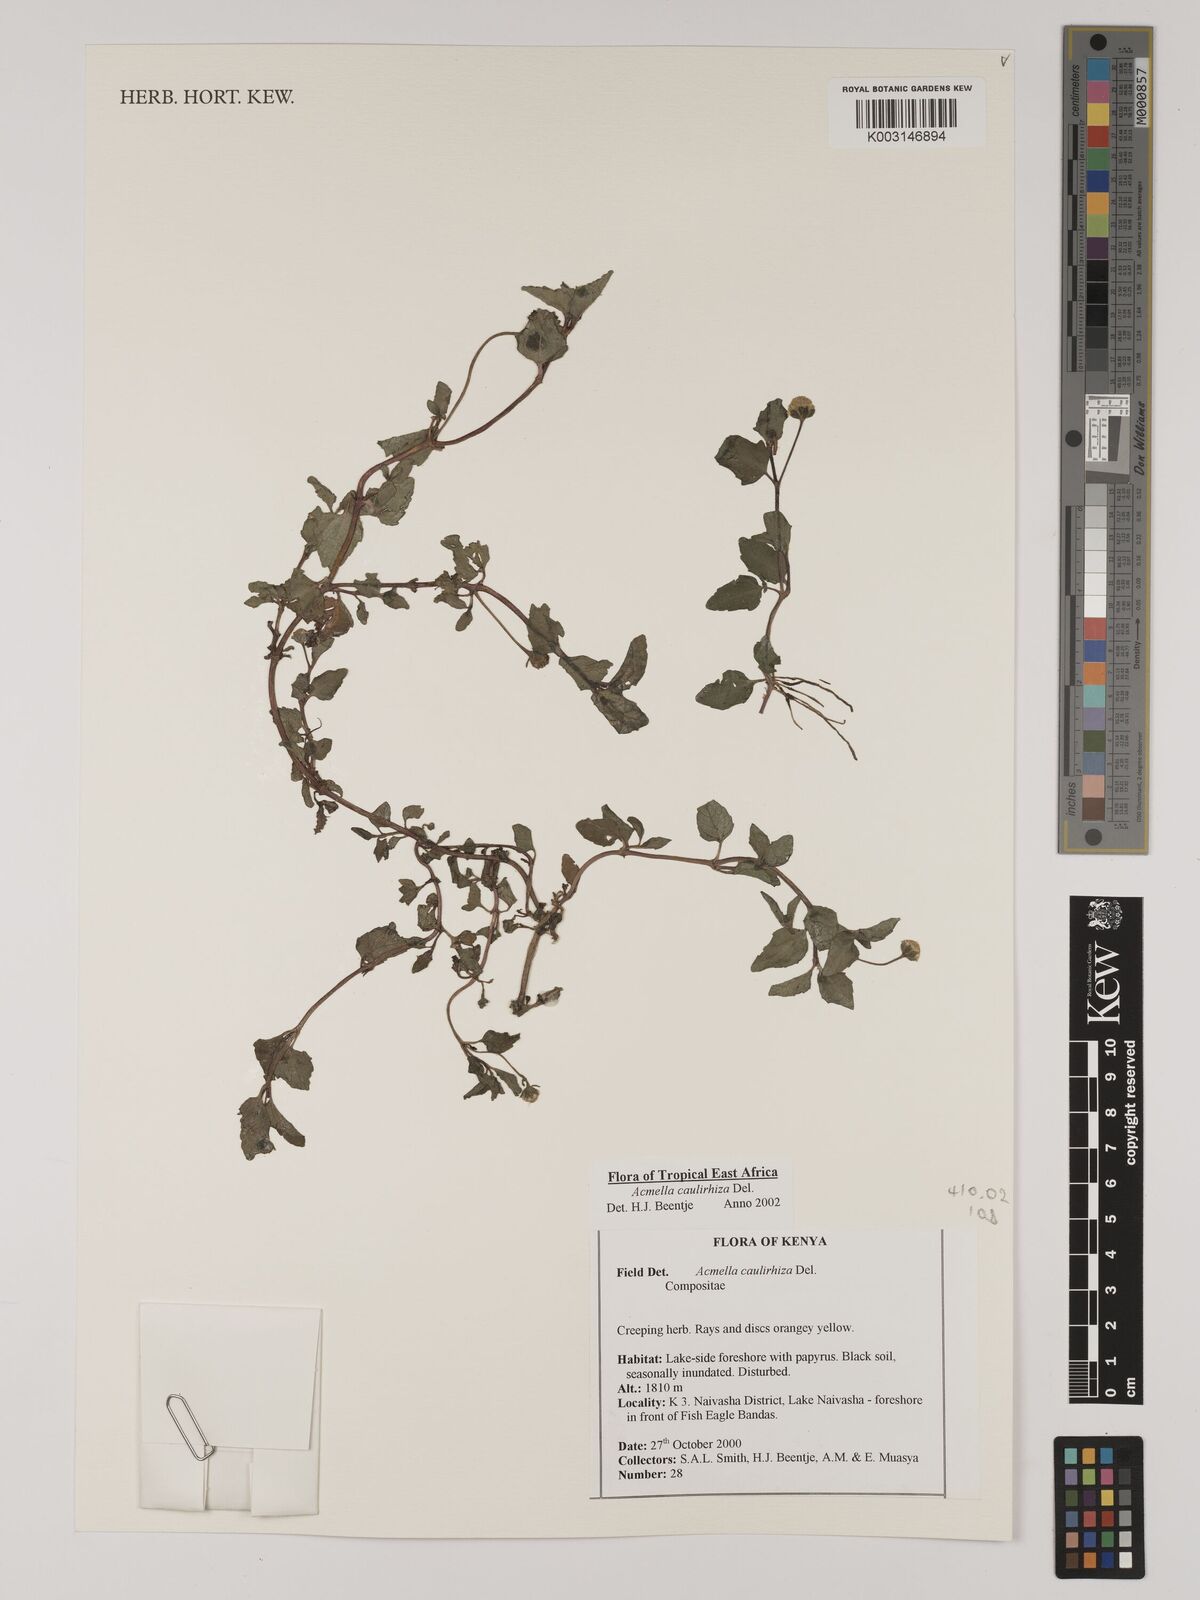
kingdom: Plantae
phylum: Tracheophyta
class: Magnoliopsida
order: Asterales
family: Asteraceae
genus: Acmella
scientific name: Acmella caulirhiza
